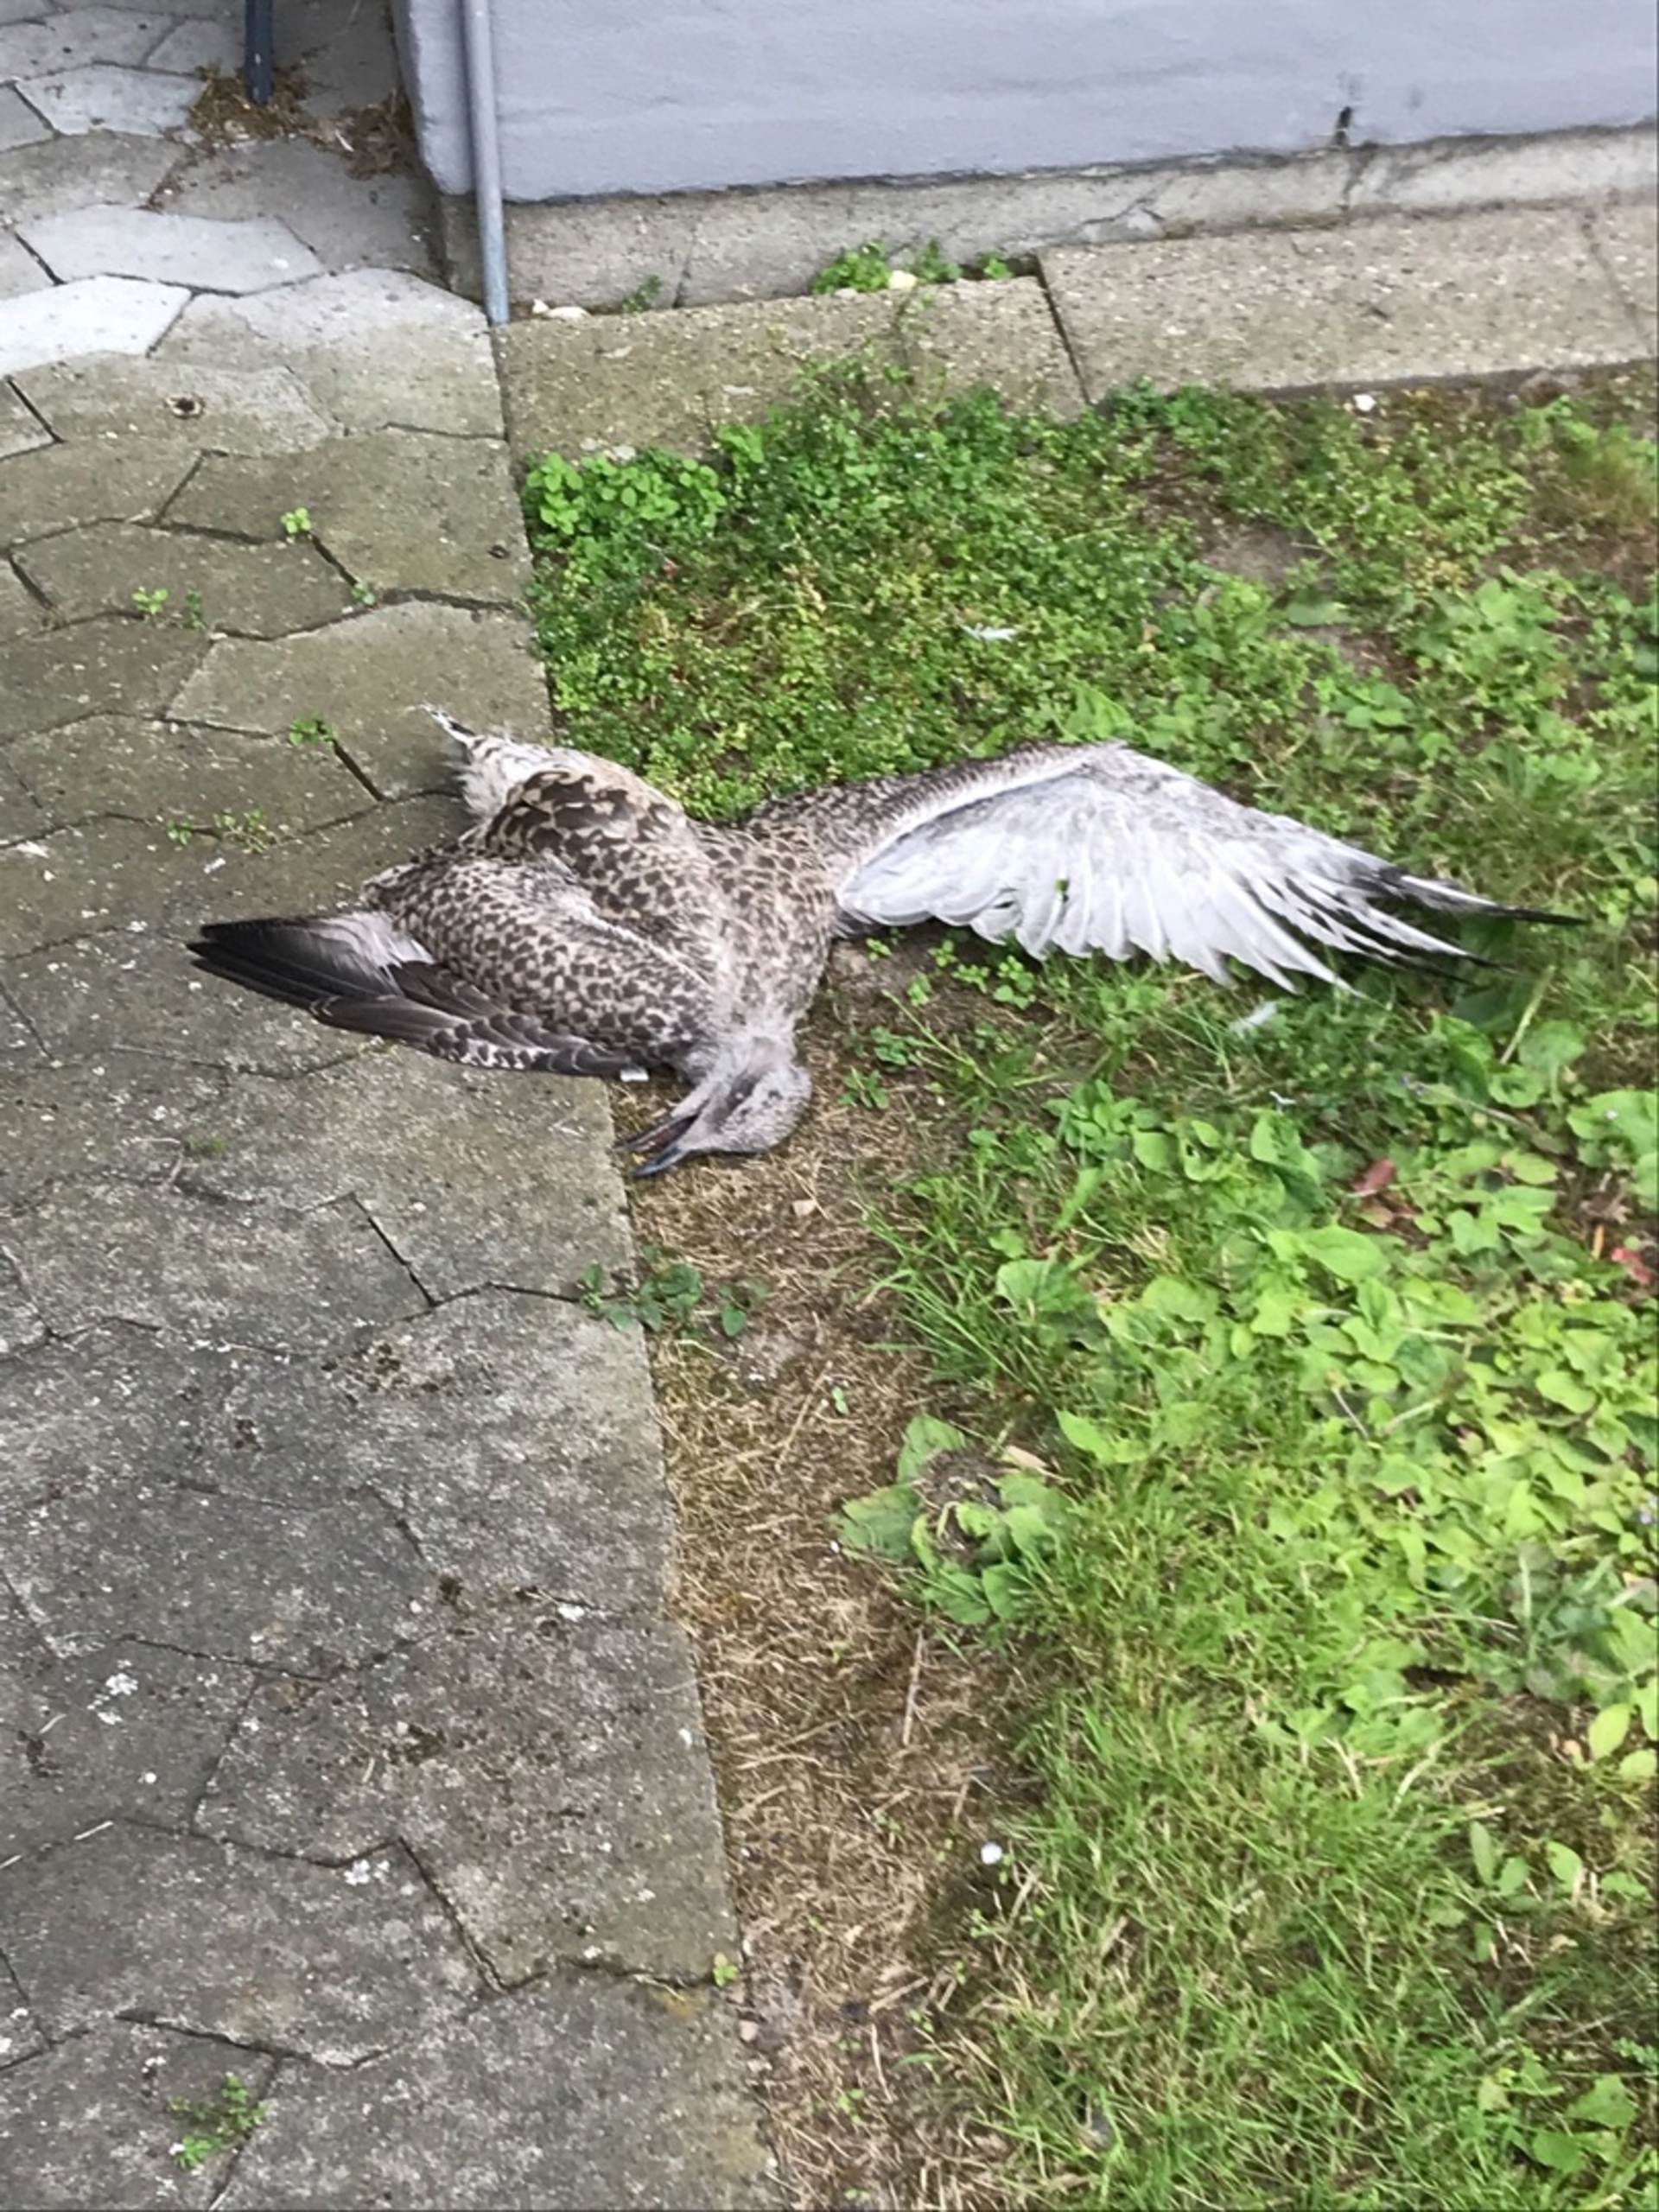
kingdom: Animalia
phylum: Chordata
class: Aves
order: Charadriiformes
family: Laridae
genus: Larus
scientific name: Larus argentatus
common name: Sølvmåge
